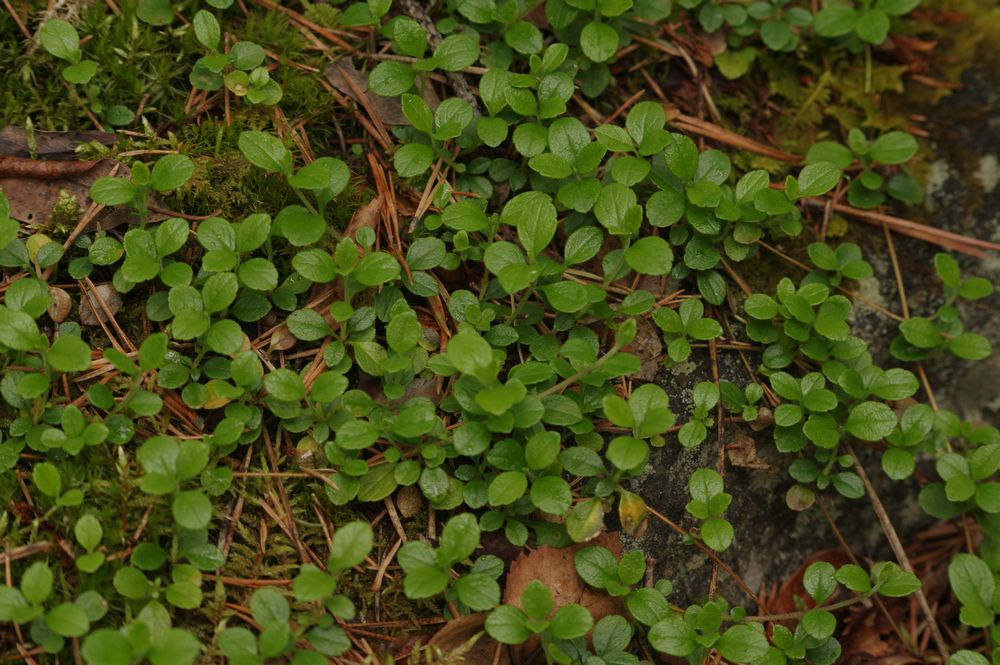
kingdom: Plantae
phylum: Tracheophyta
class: Magnoliopsida
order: Dipsacales
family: Caprifoliaceae
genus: Linnaea
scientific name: Linnaea borealis
